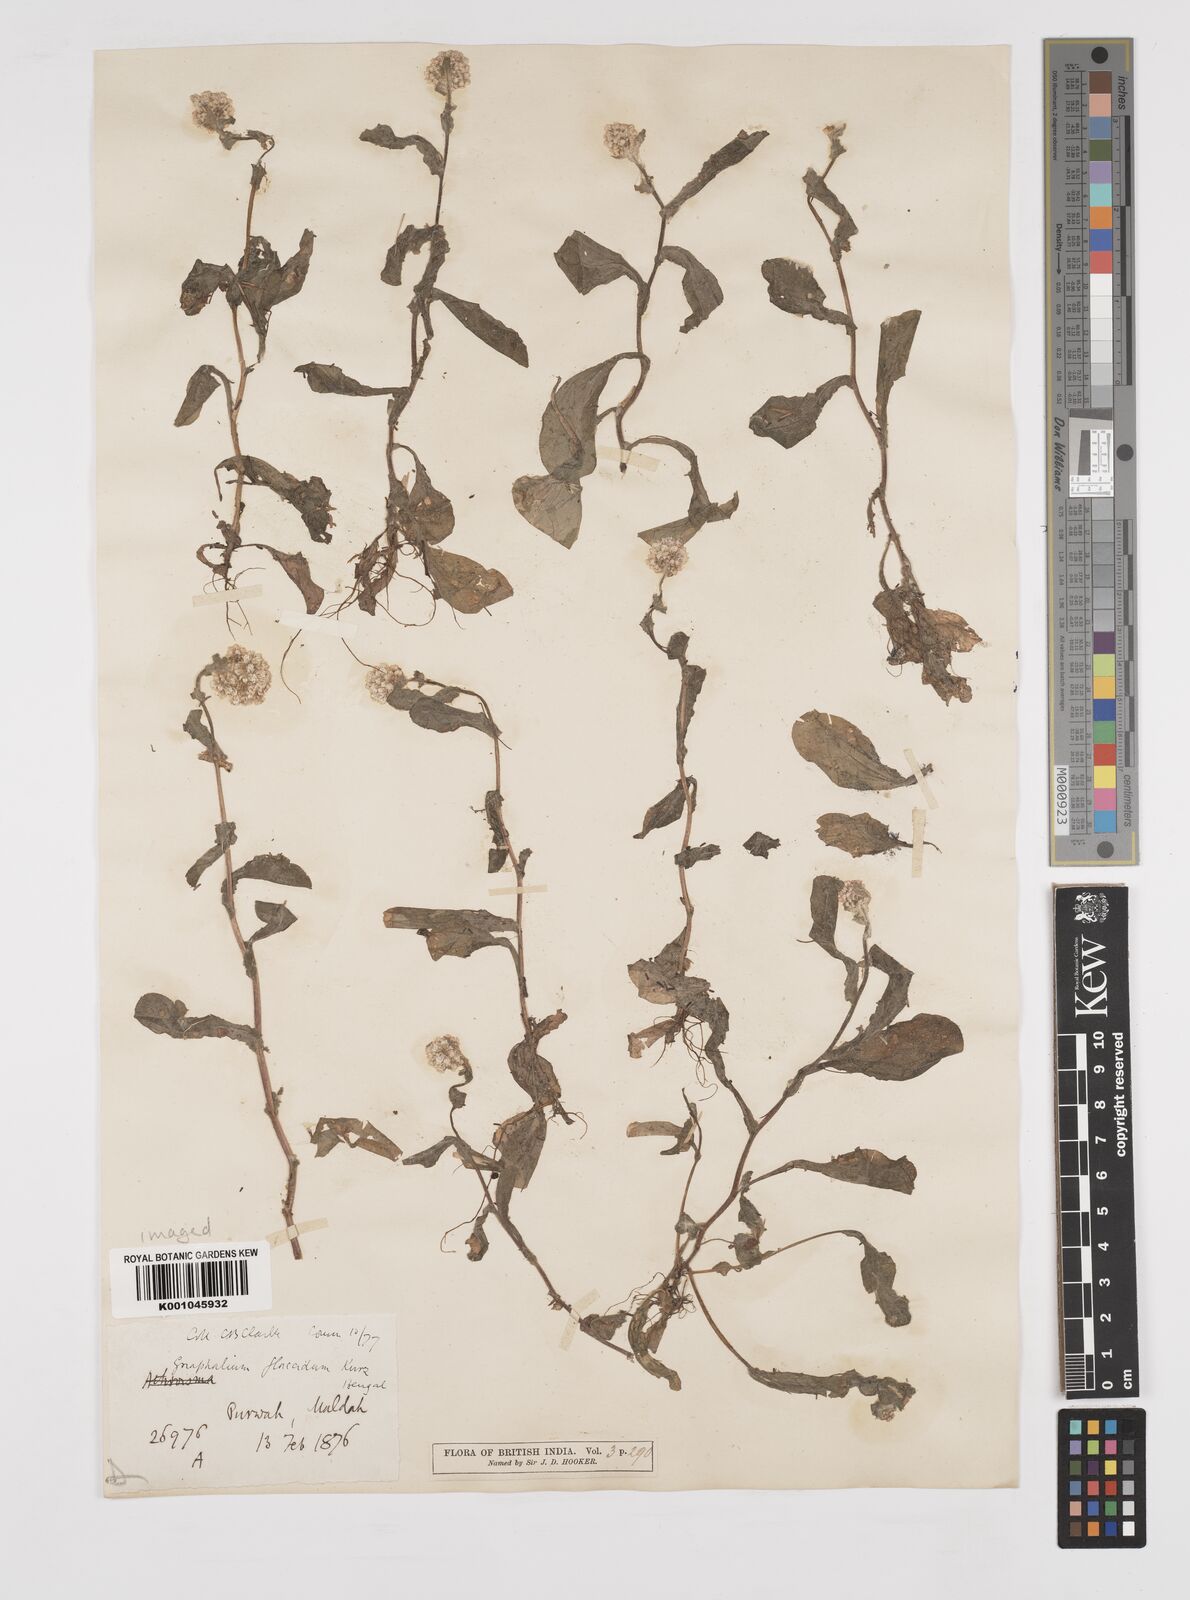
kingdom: Plantae
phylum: Tracheophyta
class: Magnoliopsida
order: Asterales
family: Asteraceae
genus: Gnaphalium
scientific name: Gnaphalium
